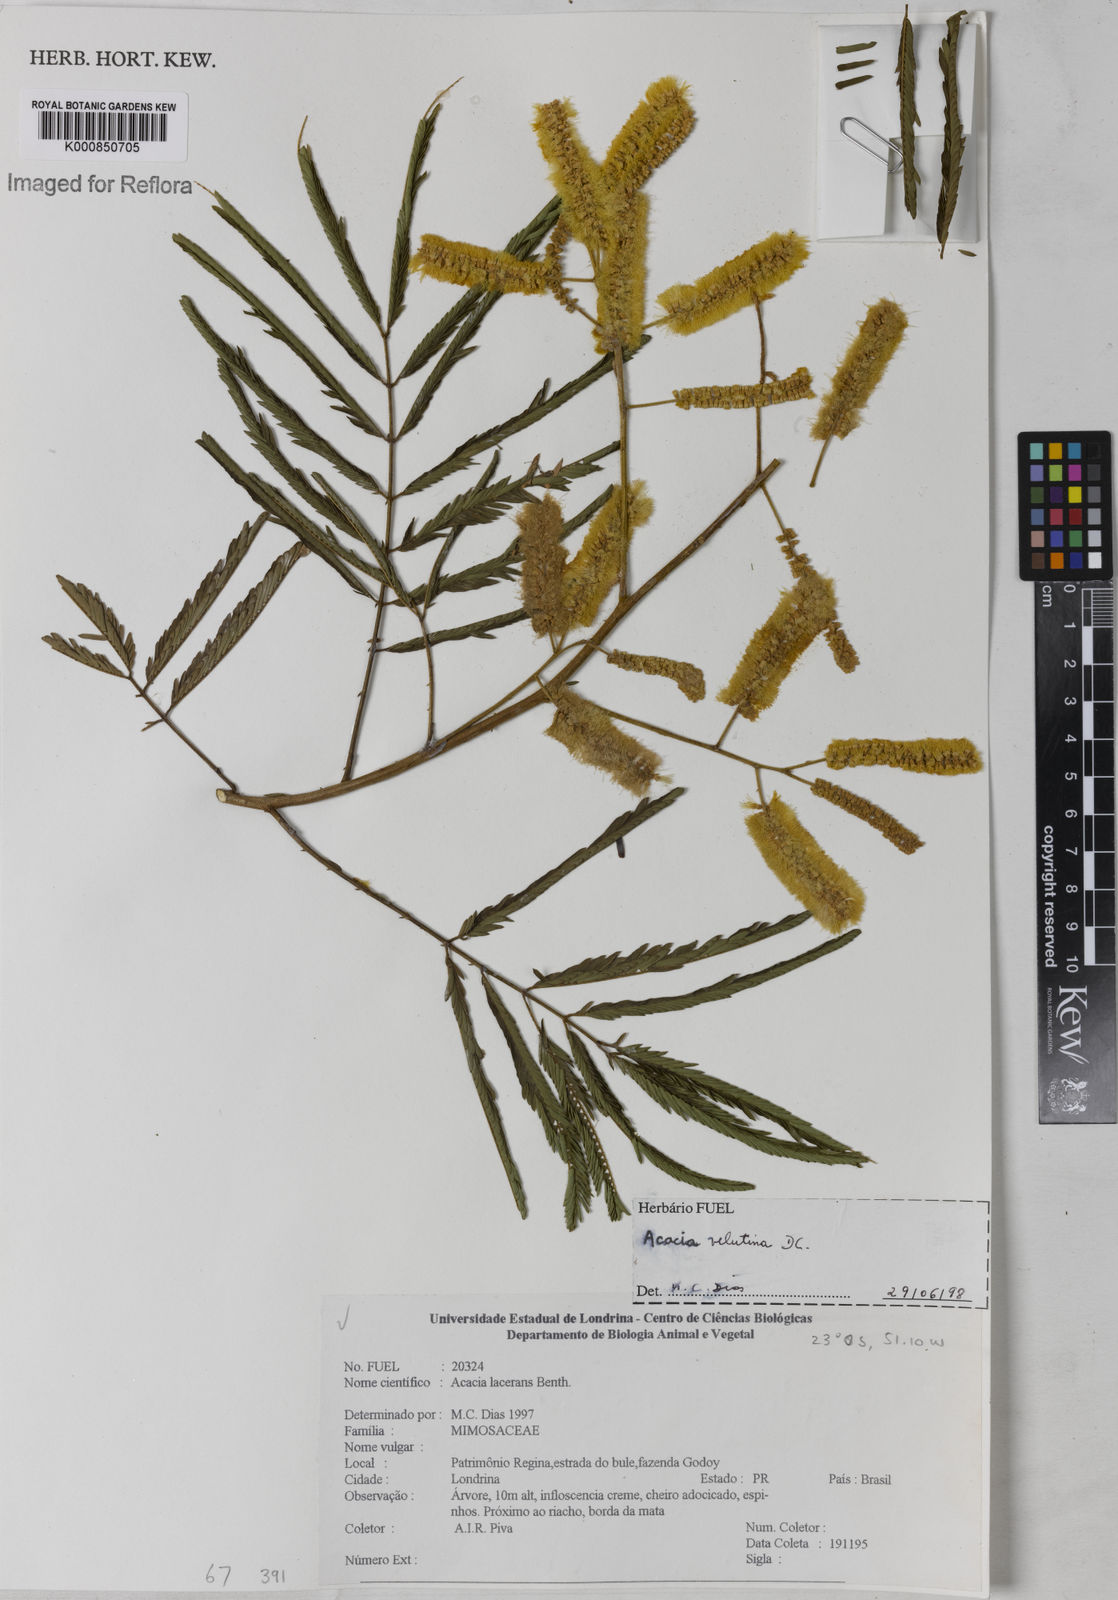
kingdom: Plantae
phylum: Tracheophyta
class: Magnoliopsida
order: Fabales
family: Fabaceae
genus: Senegalia
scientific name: Senegalia velutina
